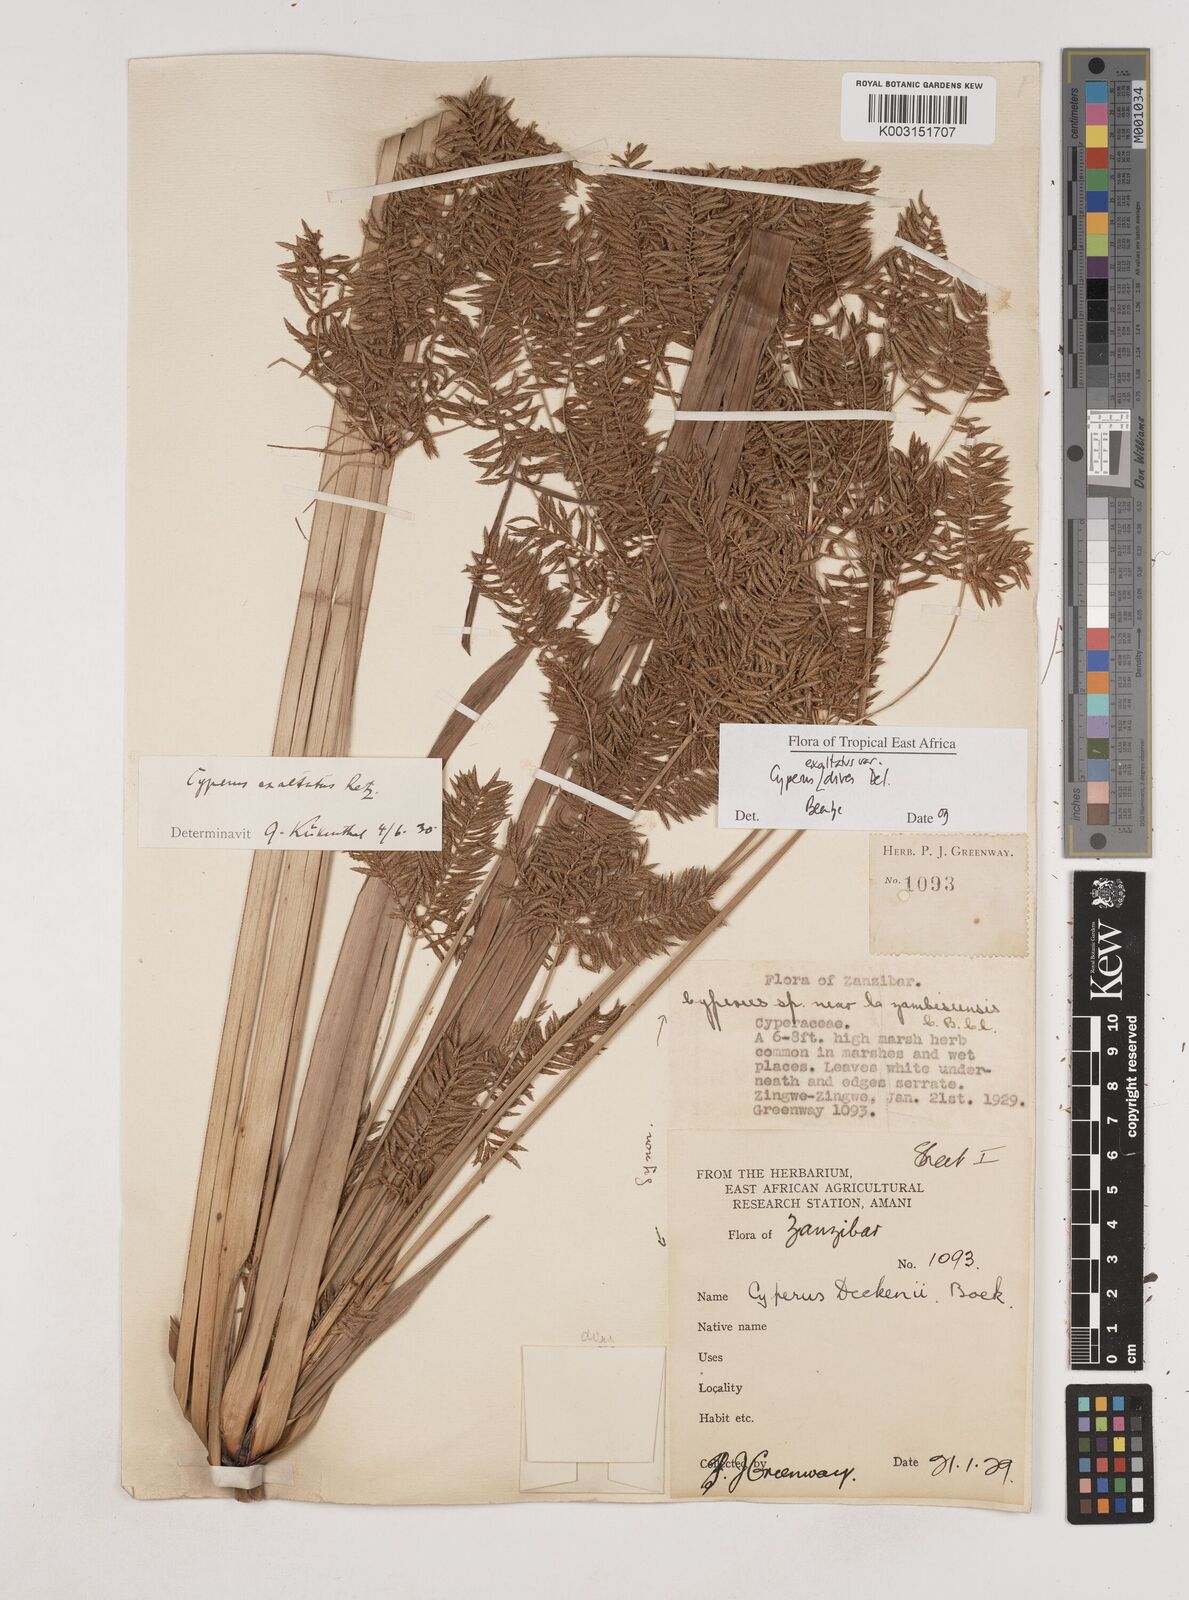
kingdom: Plantae
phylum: Tracheophyta
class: Liliopsida
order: Poales
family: Cyperaceae
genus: Cyperus
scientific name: Cyperus exaltatus
